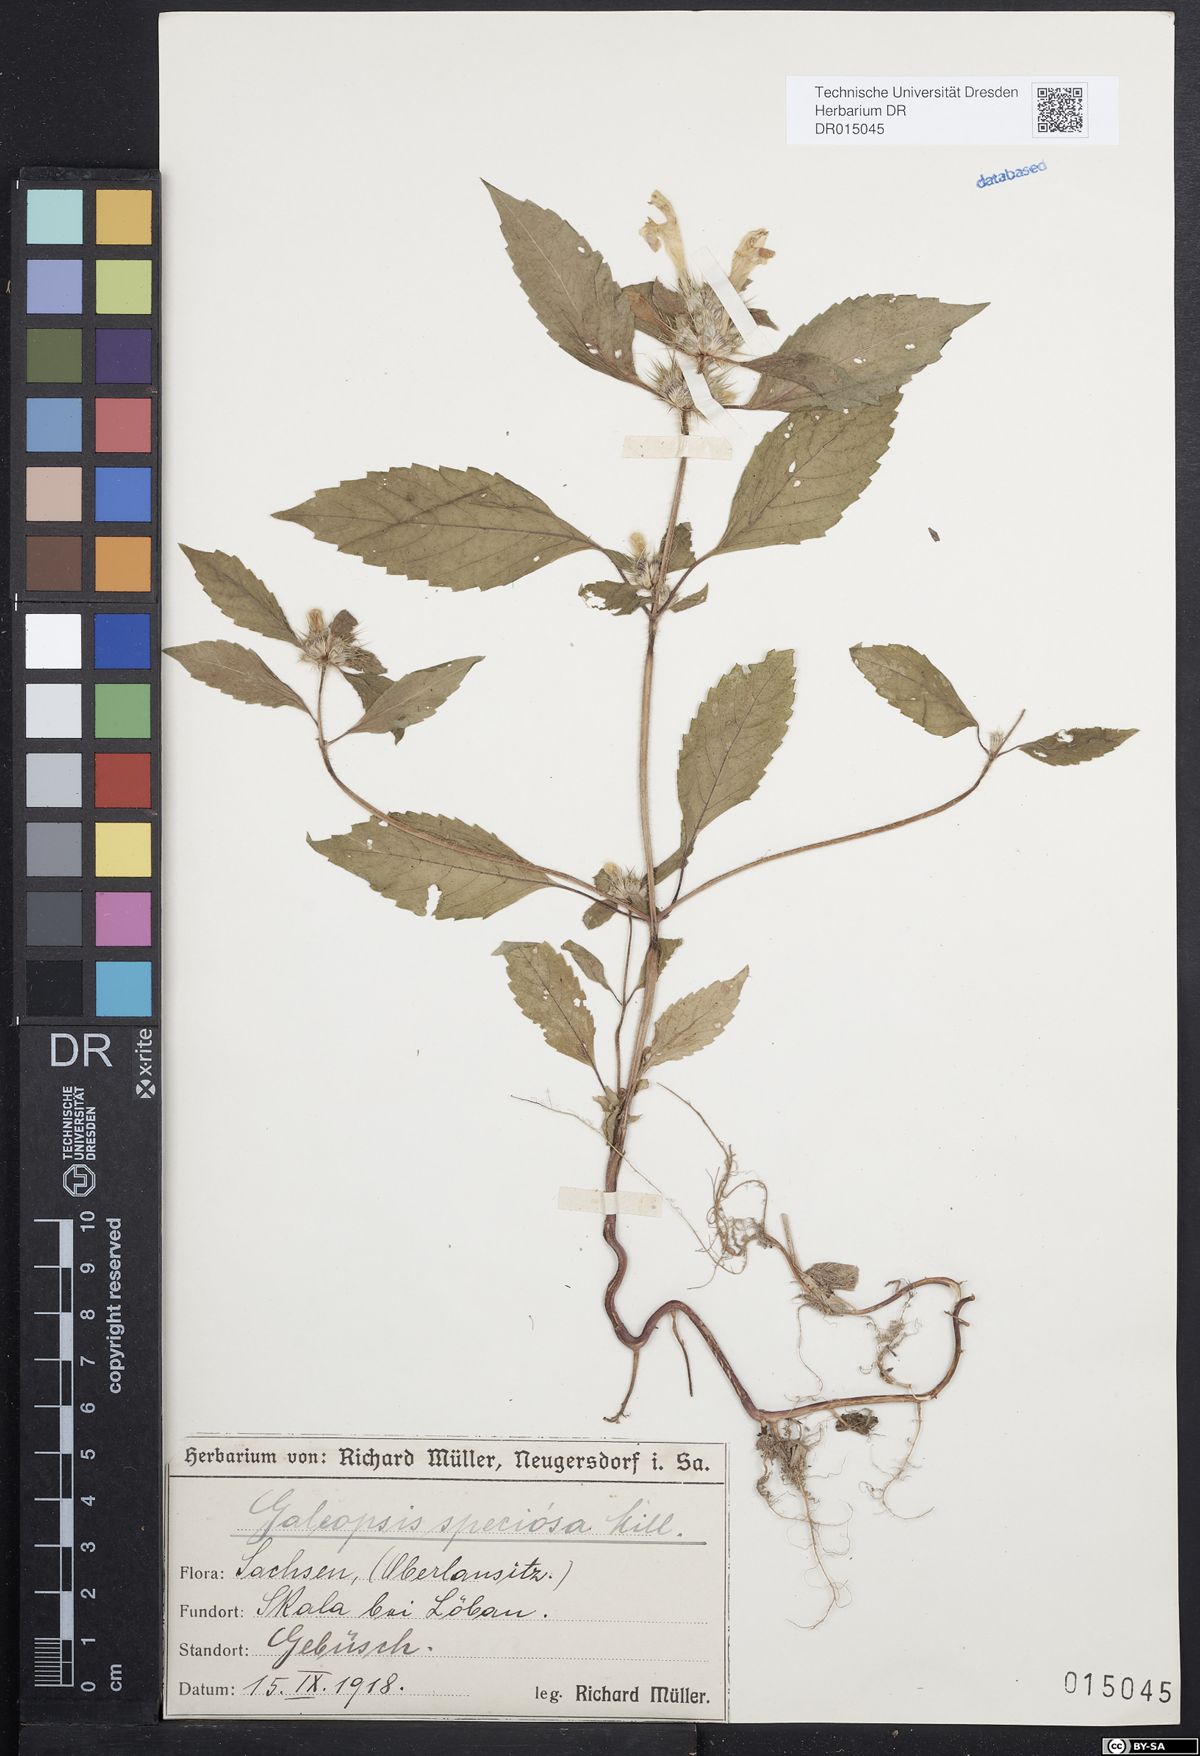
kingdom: Plantae
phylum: Tracheophyta
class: Magnoliopsida
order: Lamiales
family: Lamiaceae
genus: Galeopsis
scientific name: Galeopsis speciosa
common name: Large-flowered hemp-nettle
